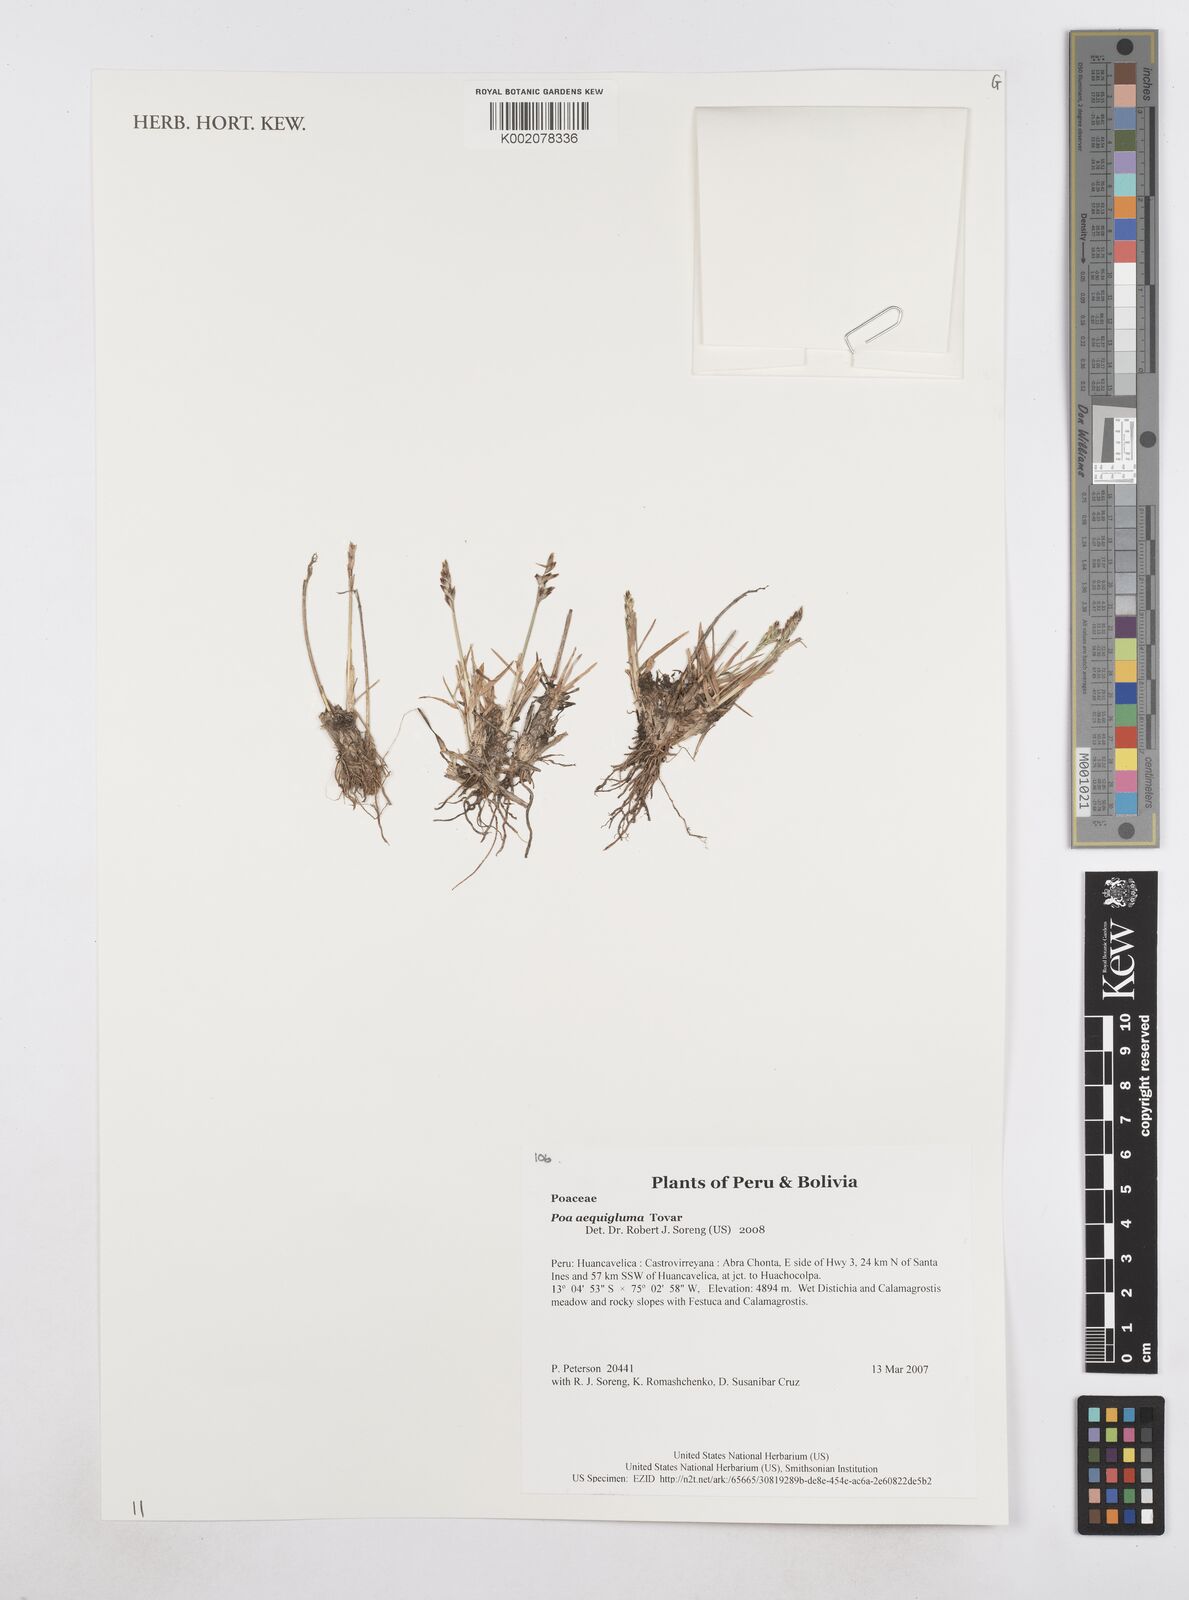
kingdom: Plantae
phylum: Tracheophyta
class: Liliopsida
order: Poales
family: Poaceae
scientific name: Poaceae
